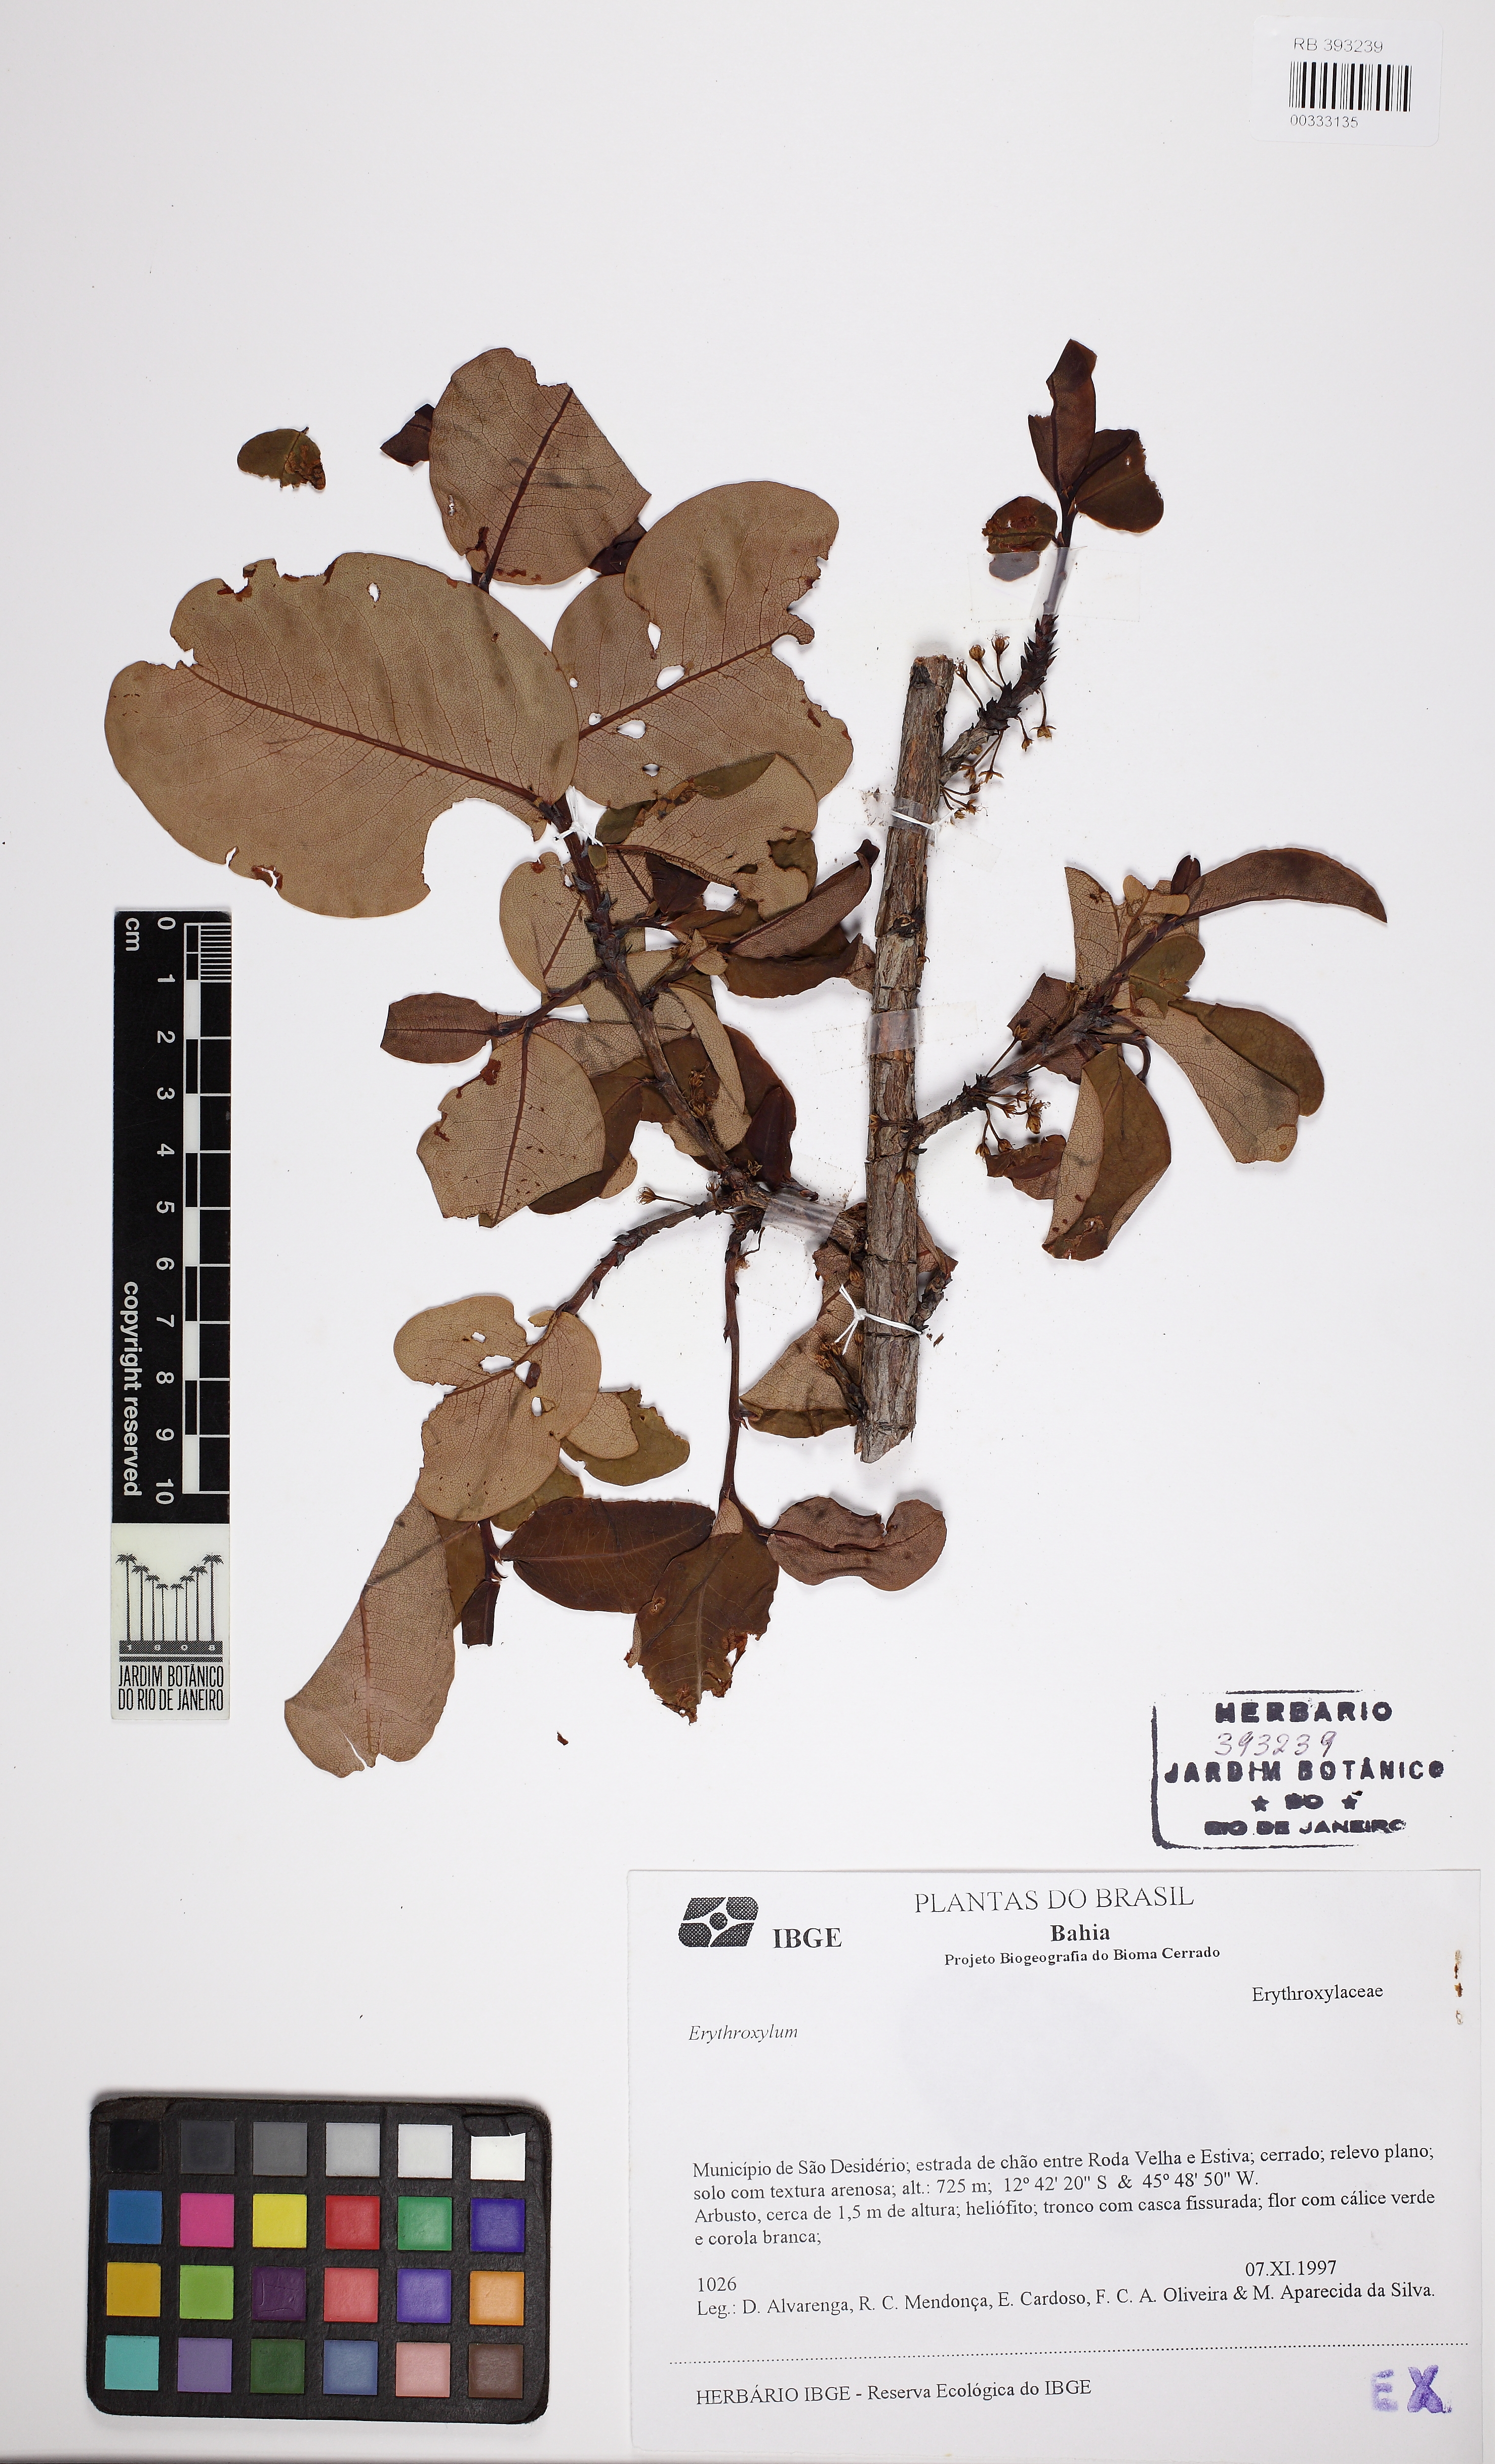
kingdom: Plantae
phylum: Tracheophyta
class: Magnoliopsida
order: Malpighiales
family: Erythroxylaceae
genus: Erythroxylum
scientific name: Erythroxylum suberosum
